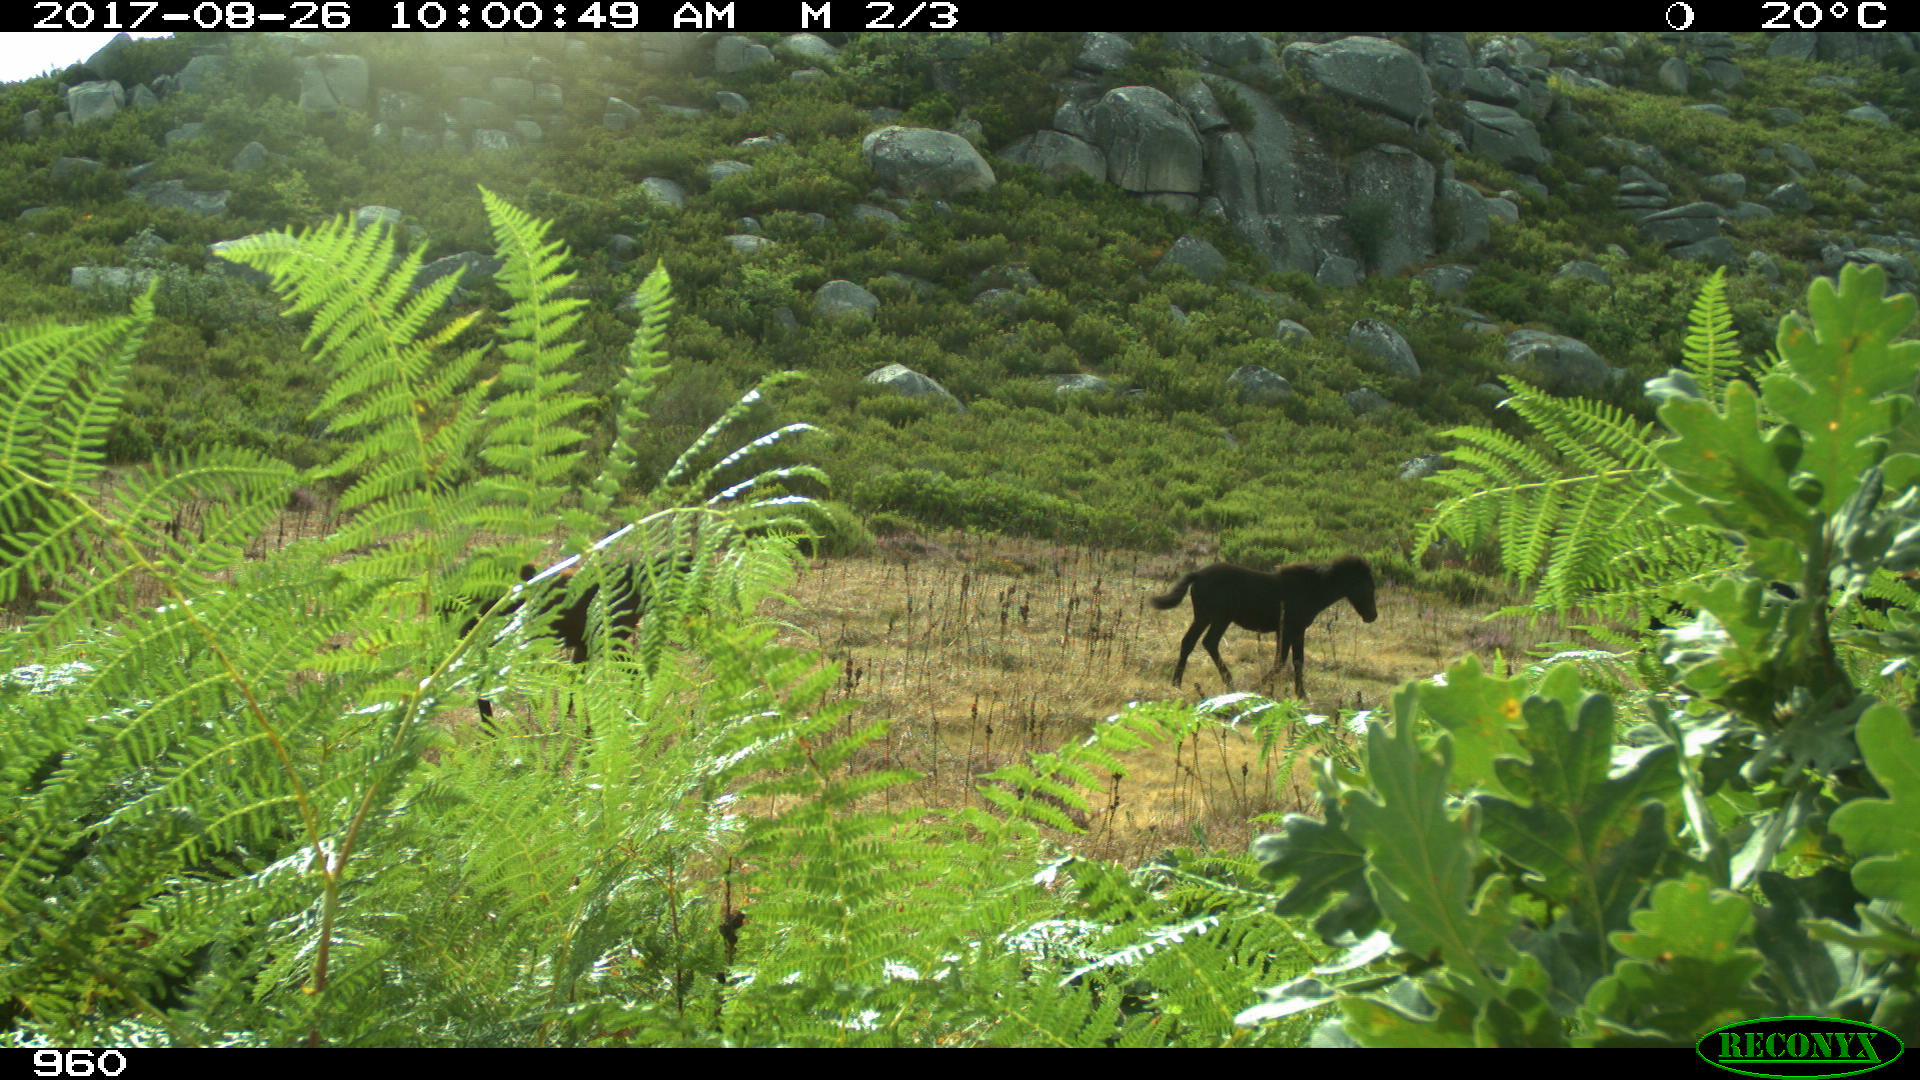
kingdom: Animalia
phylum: Chordata
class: Mammalia
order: Perissodactyla
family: Equidae
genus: Equus
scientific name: Equus caballus
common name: Horse
